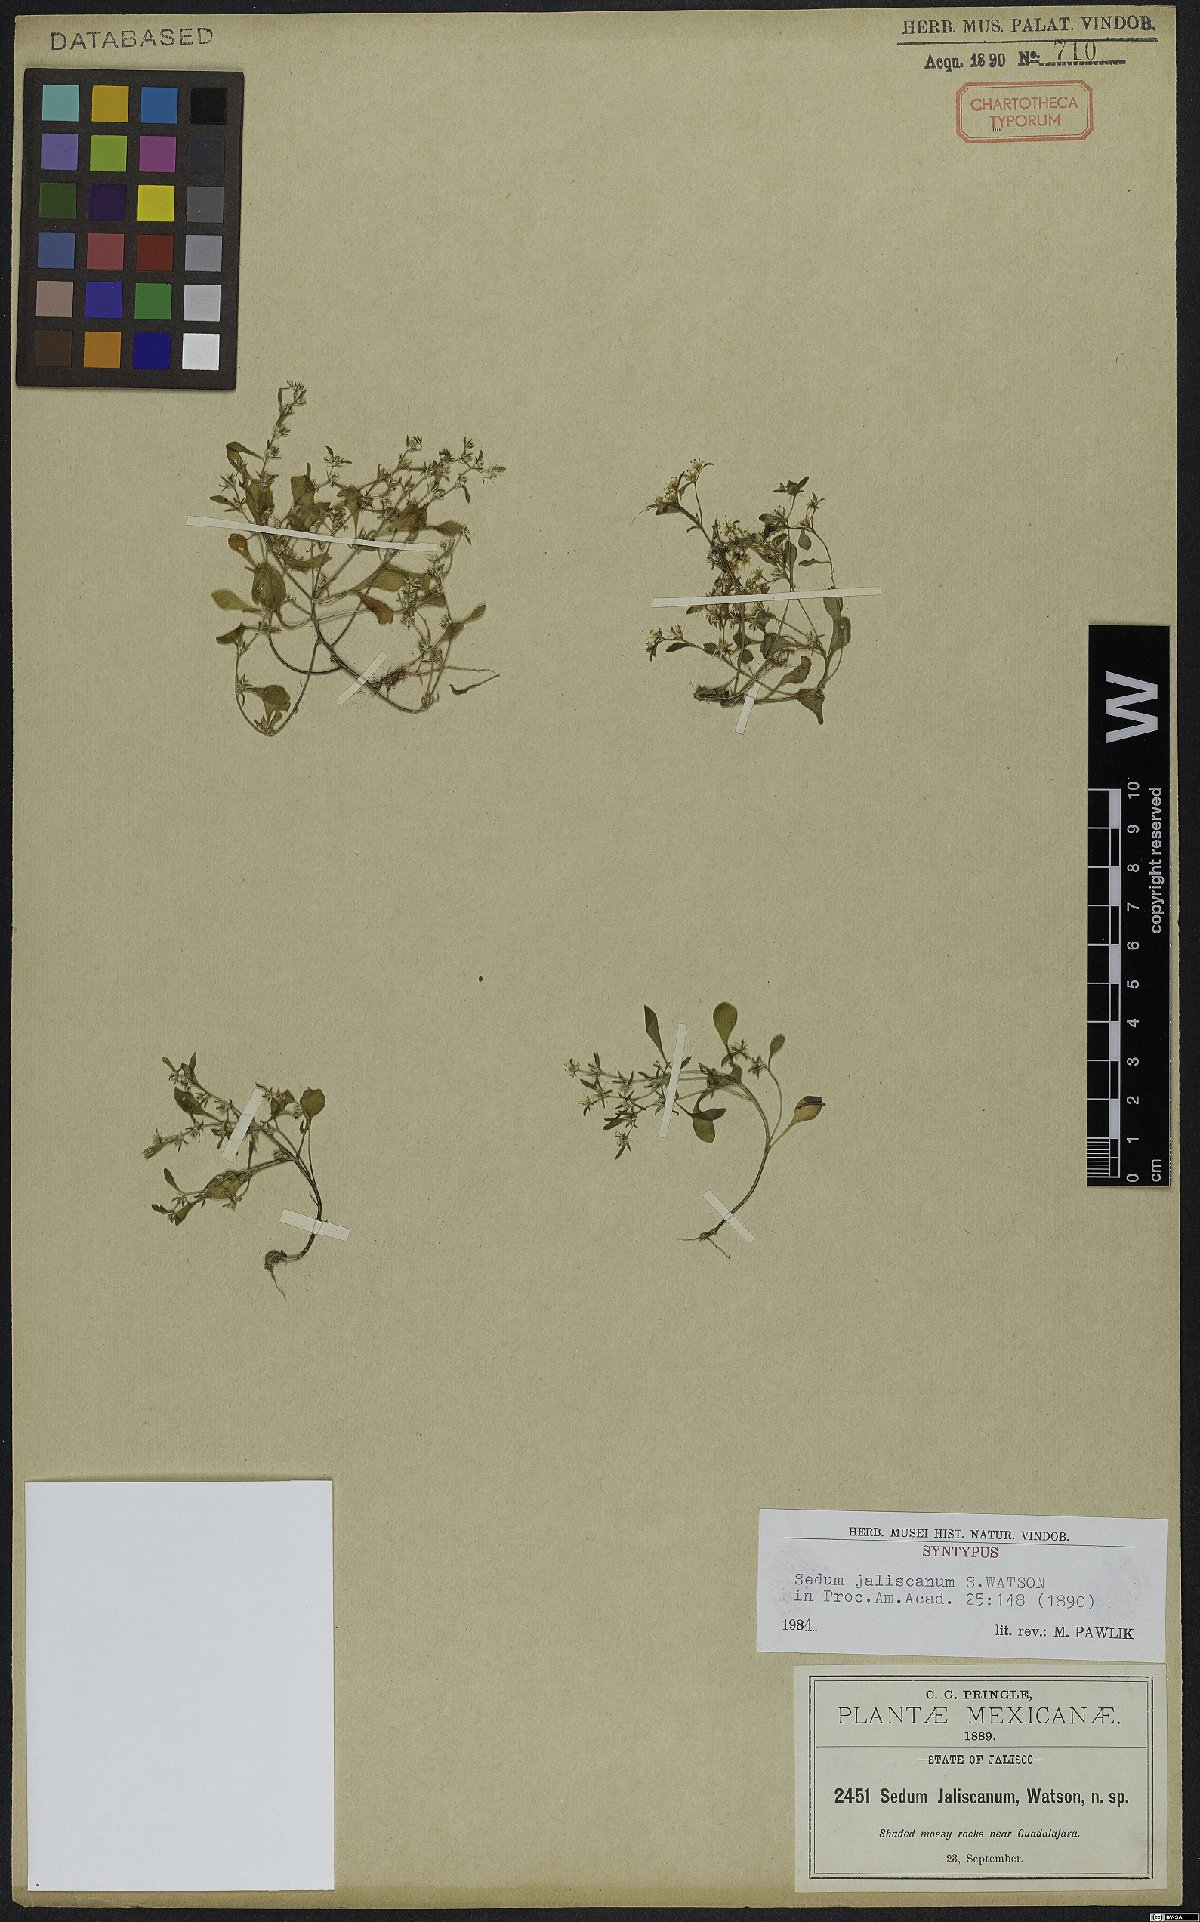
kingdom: Plantae
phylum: Tracheophyta
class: Magnoliopsida
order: Saxifragales
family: Crassulaceae
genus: Sedum
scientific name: Sedum jaliscanum
